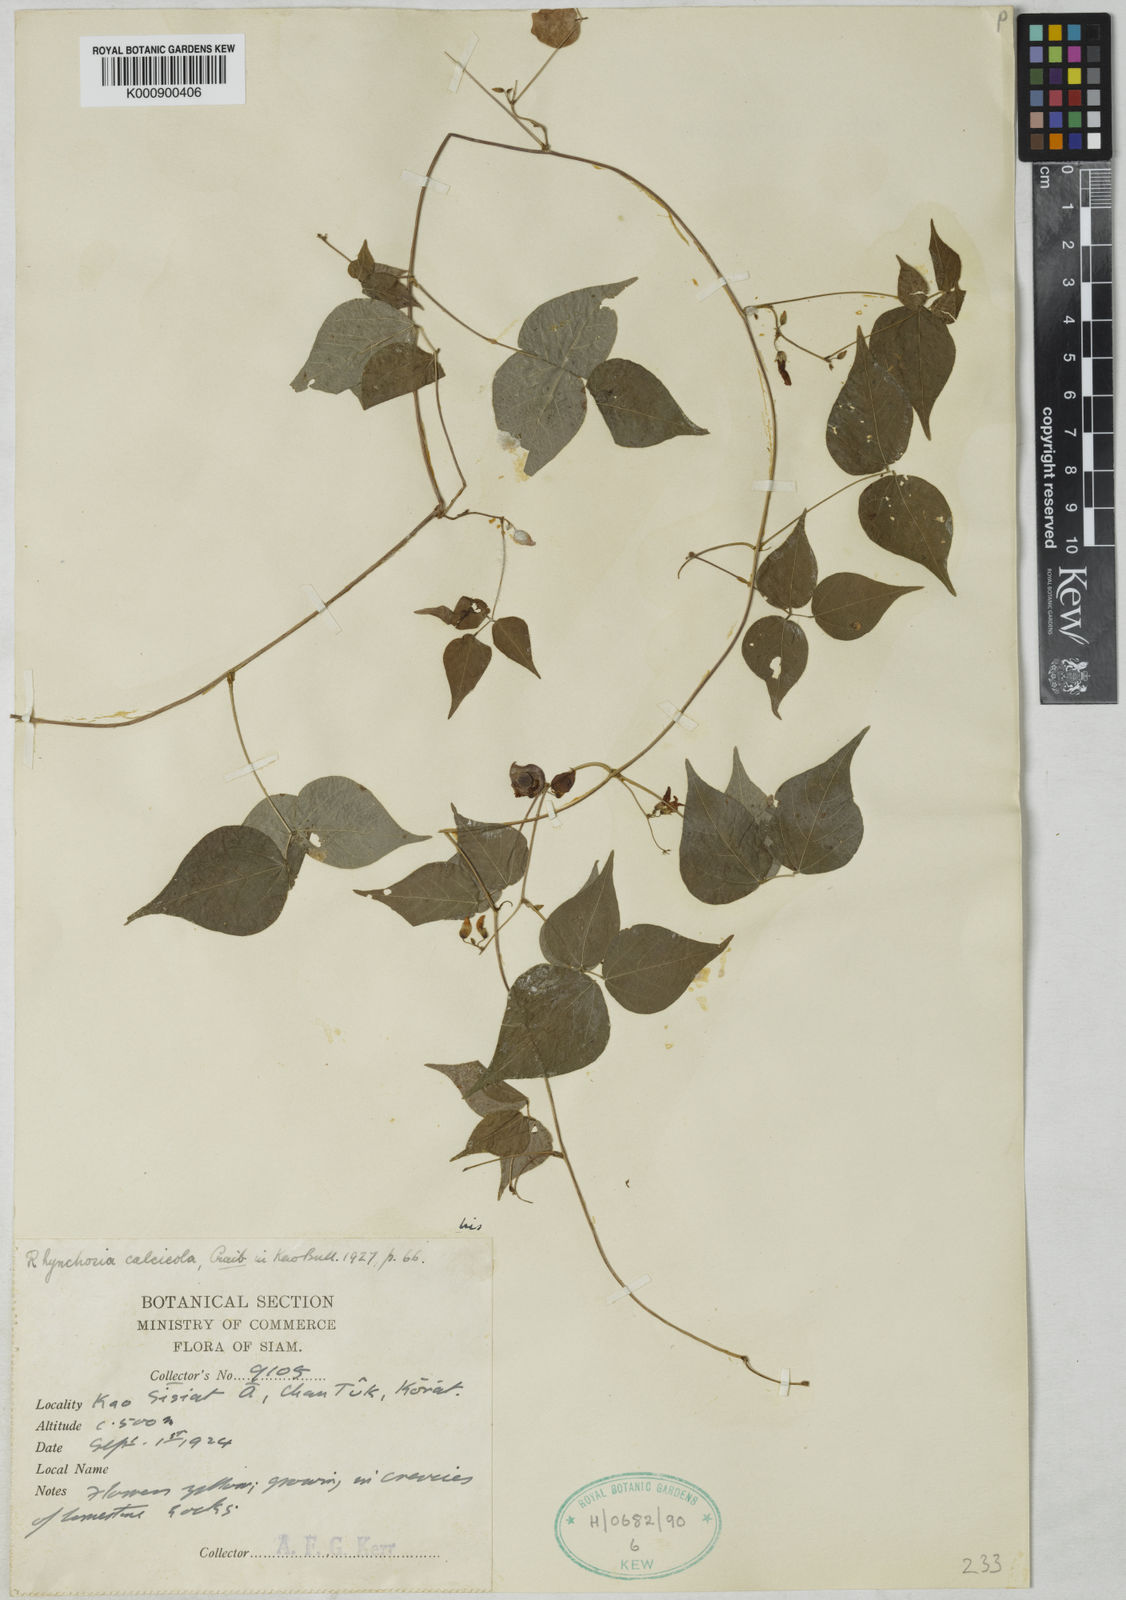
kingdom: Plantae
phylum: Tracheophyta
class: Magnoliopsida
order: Fabales
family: Fabaceae
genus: Rhynchosia
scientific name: Rhynchosia calcicola
